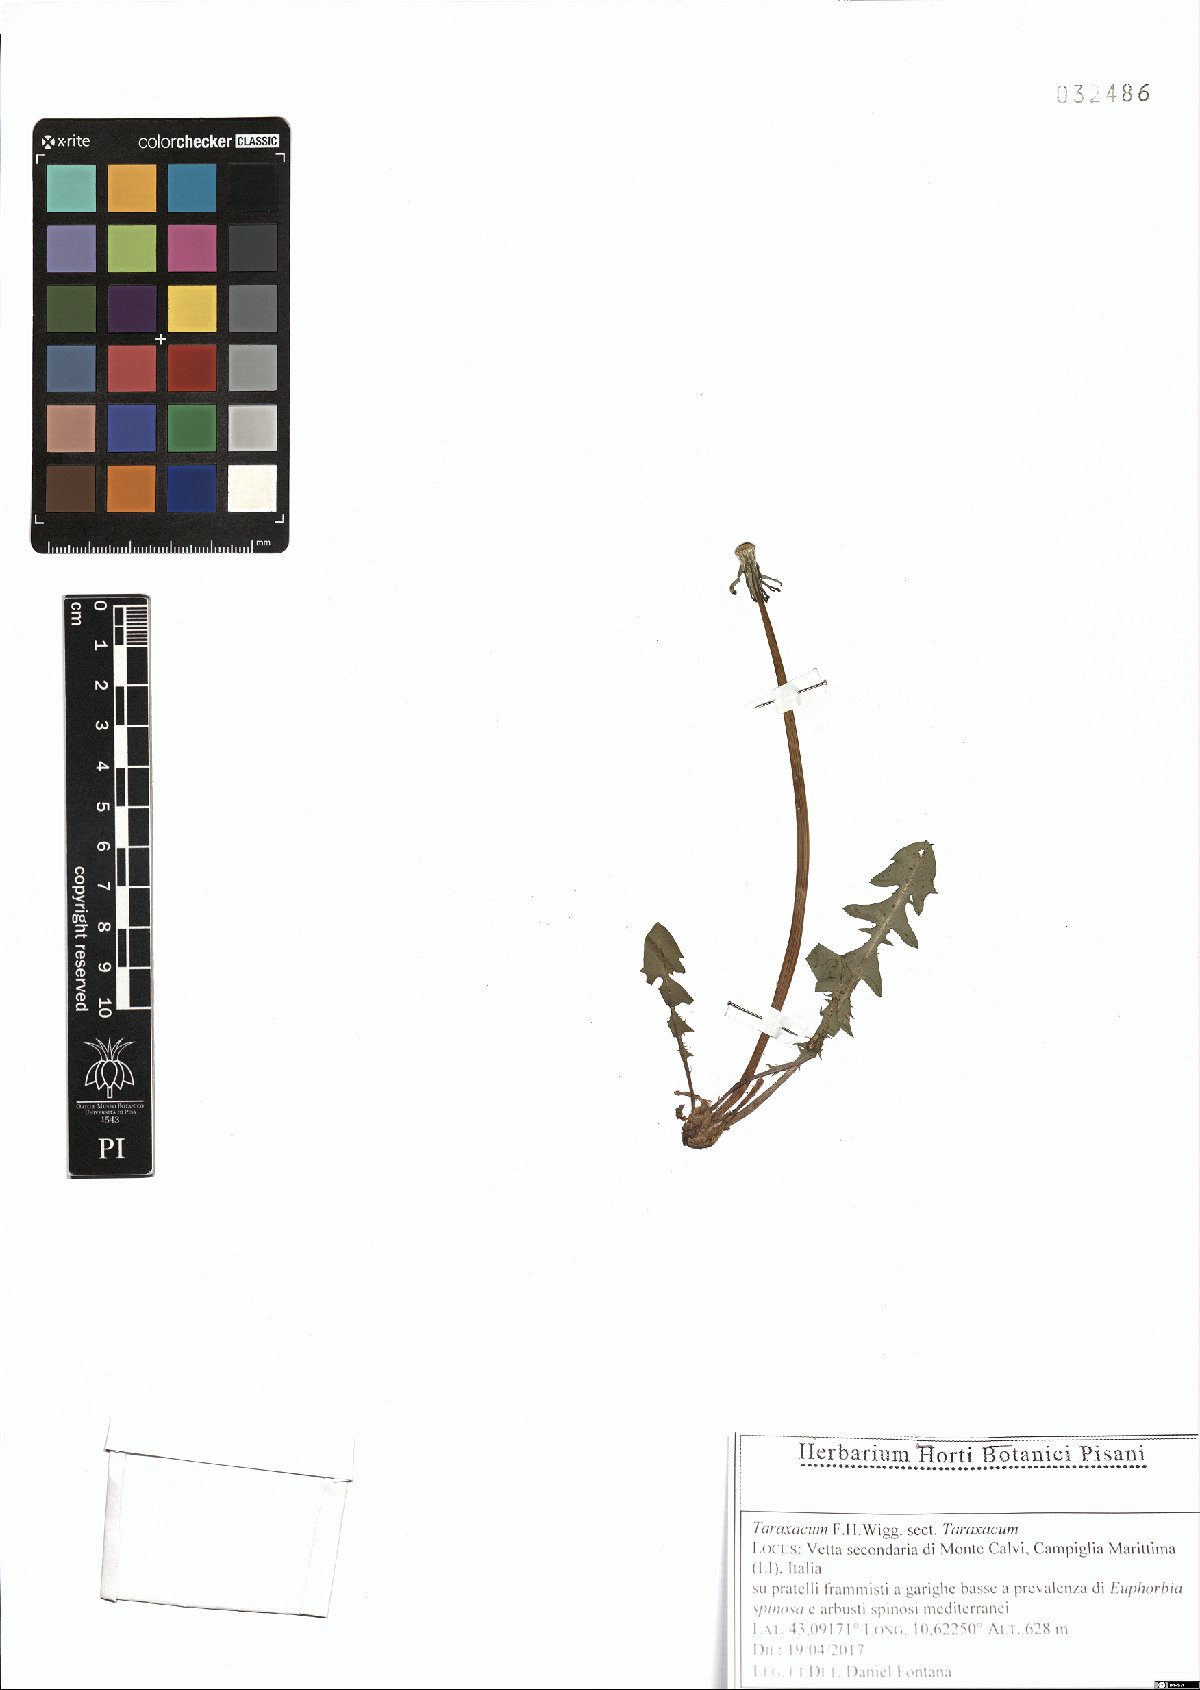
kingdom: Plantae
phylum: Tracheophyta
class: Magnoliopsida
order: Asterales
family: Asteraceae
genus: Taraxacum
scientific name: Taraxacum
